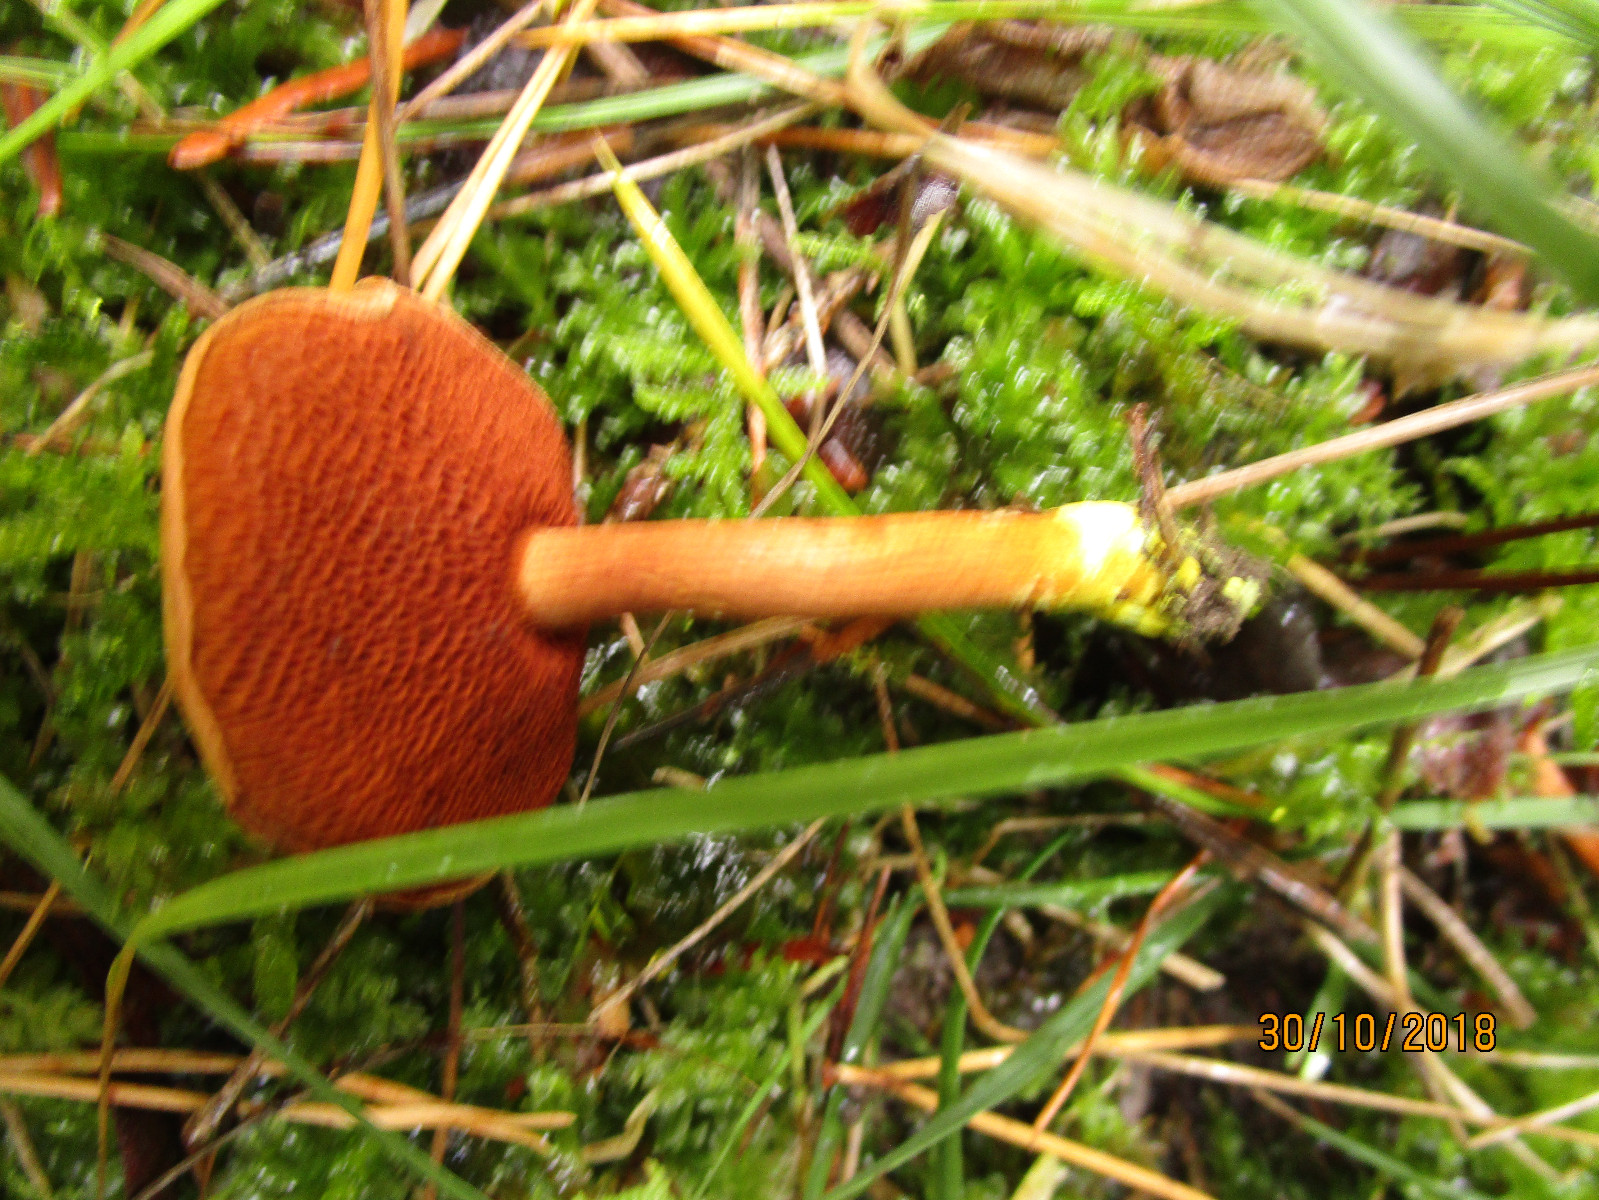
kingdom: Fungi
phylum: Basidiomycota
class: Agaricomycetes
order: Boletales
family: Boletaceae
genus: Chalciporus
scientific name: Chalciporus piperatus
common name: peberrørhat
